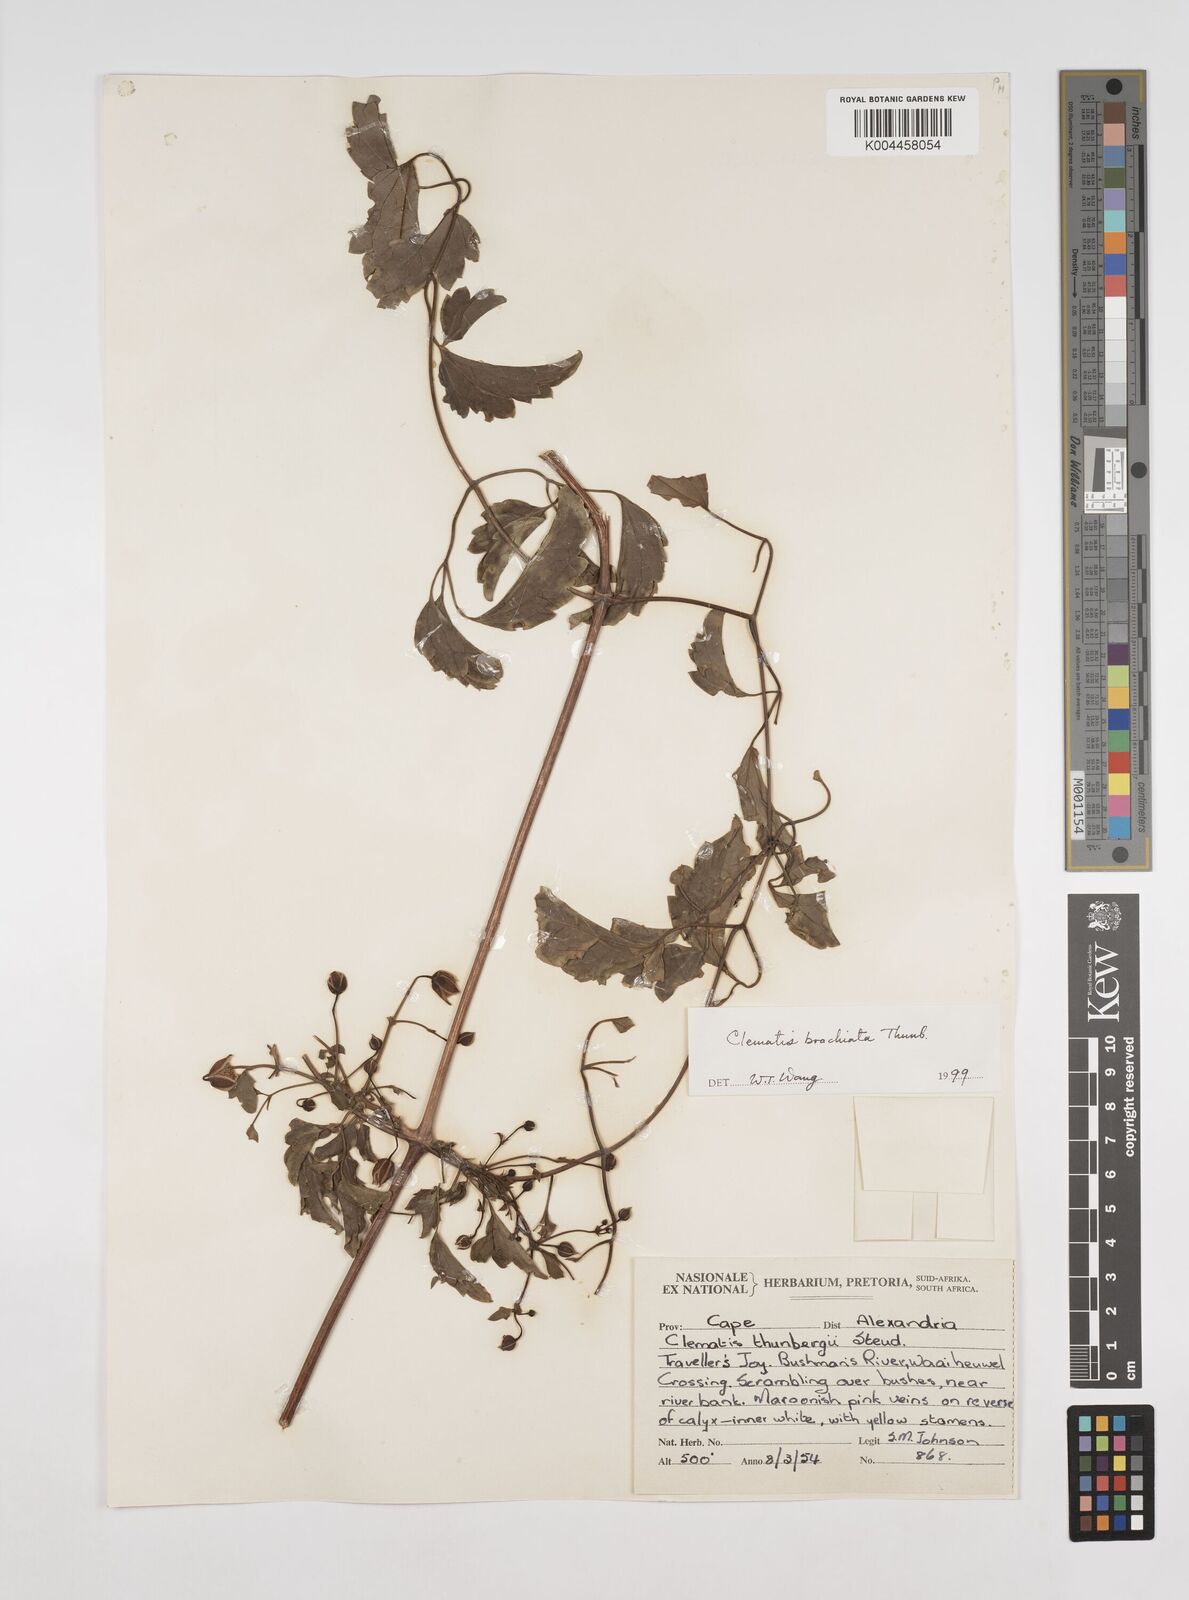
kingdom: Plantae
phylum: Tracheophyta
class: Magnoliopsida
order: Ranunculales
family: Ranunculaceae
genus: Clematis
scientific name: Clematis brachiata
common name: Traveler's-joy
